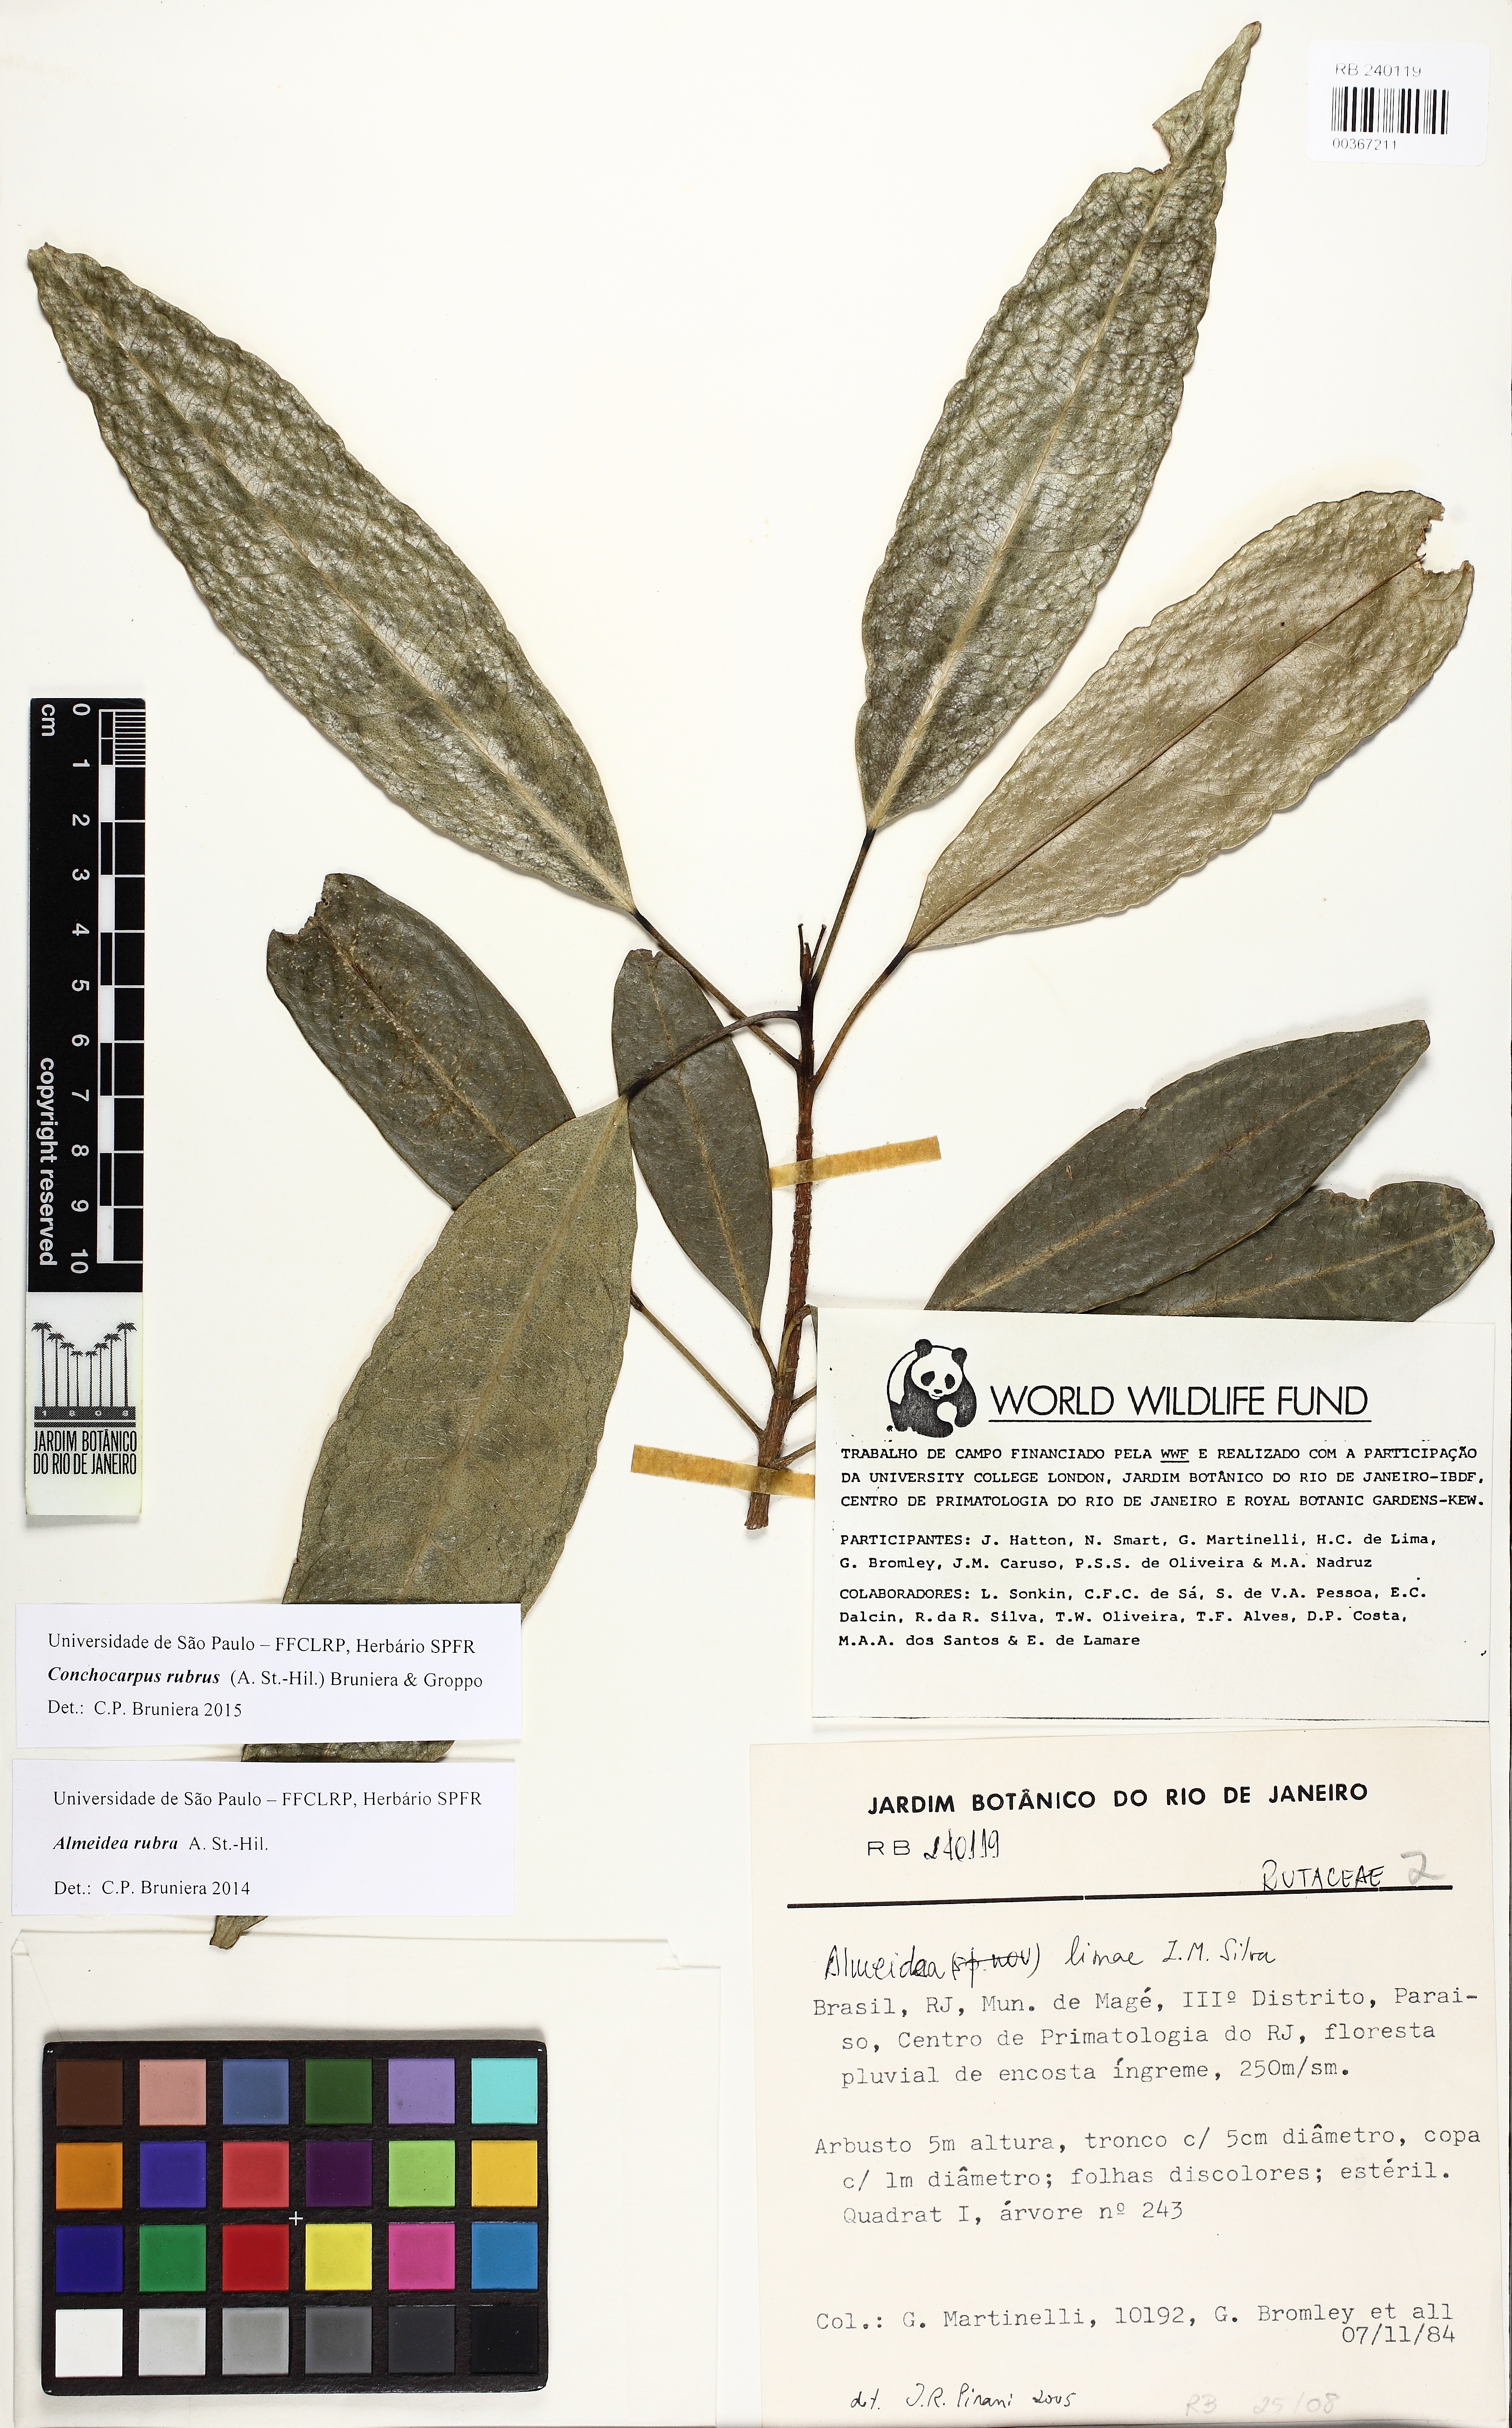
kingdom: Plantae
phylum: Tracheophyta
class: Magnoliopsida
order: Sapindales
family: Rutaceae
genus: Conchocarpus
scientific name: Conchocarpus ruber
